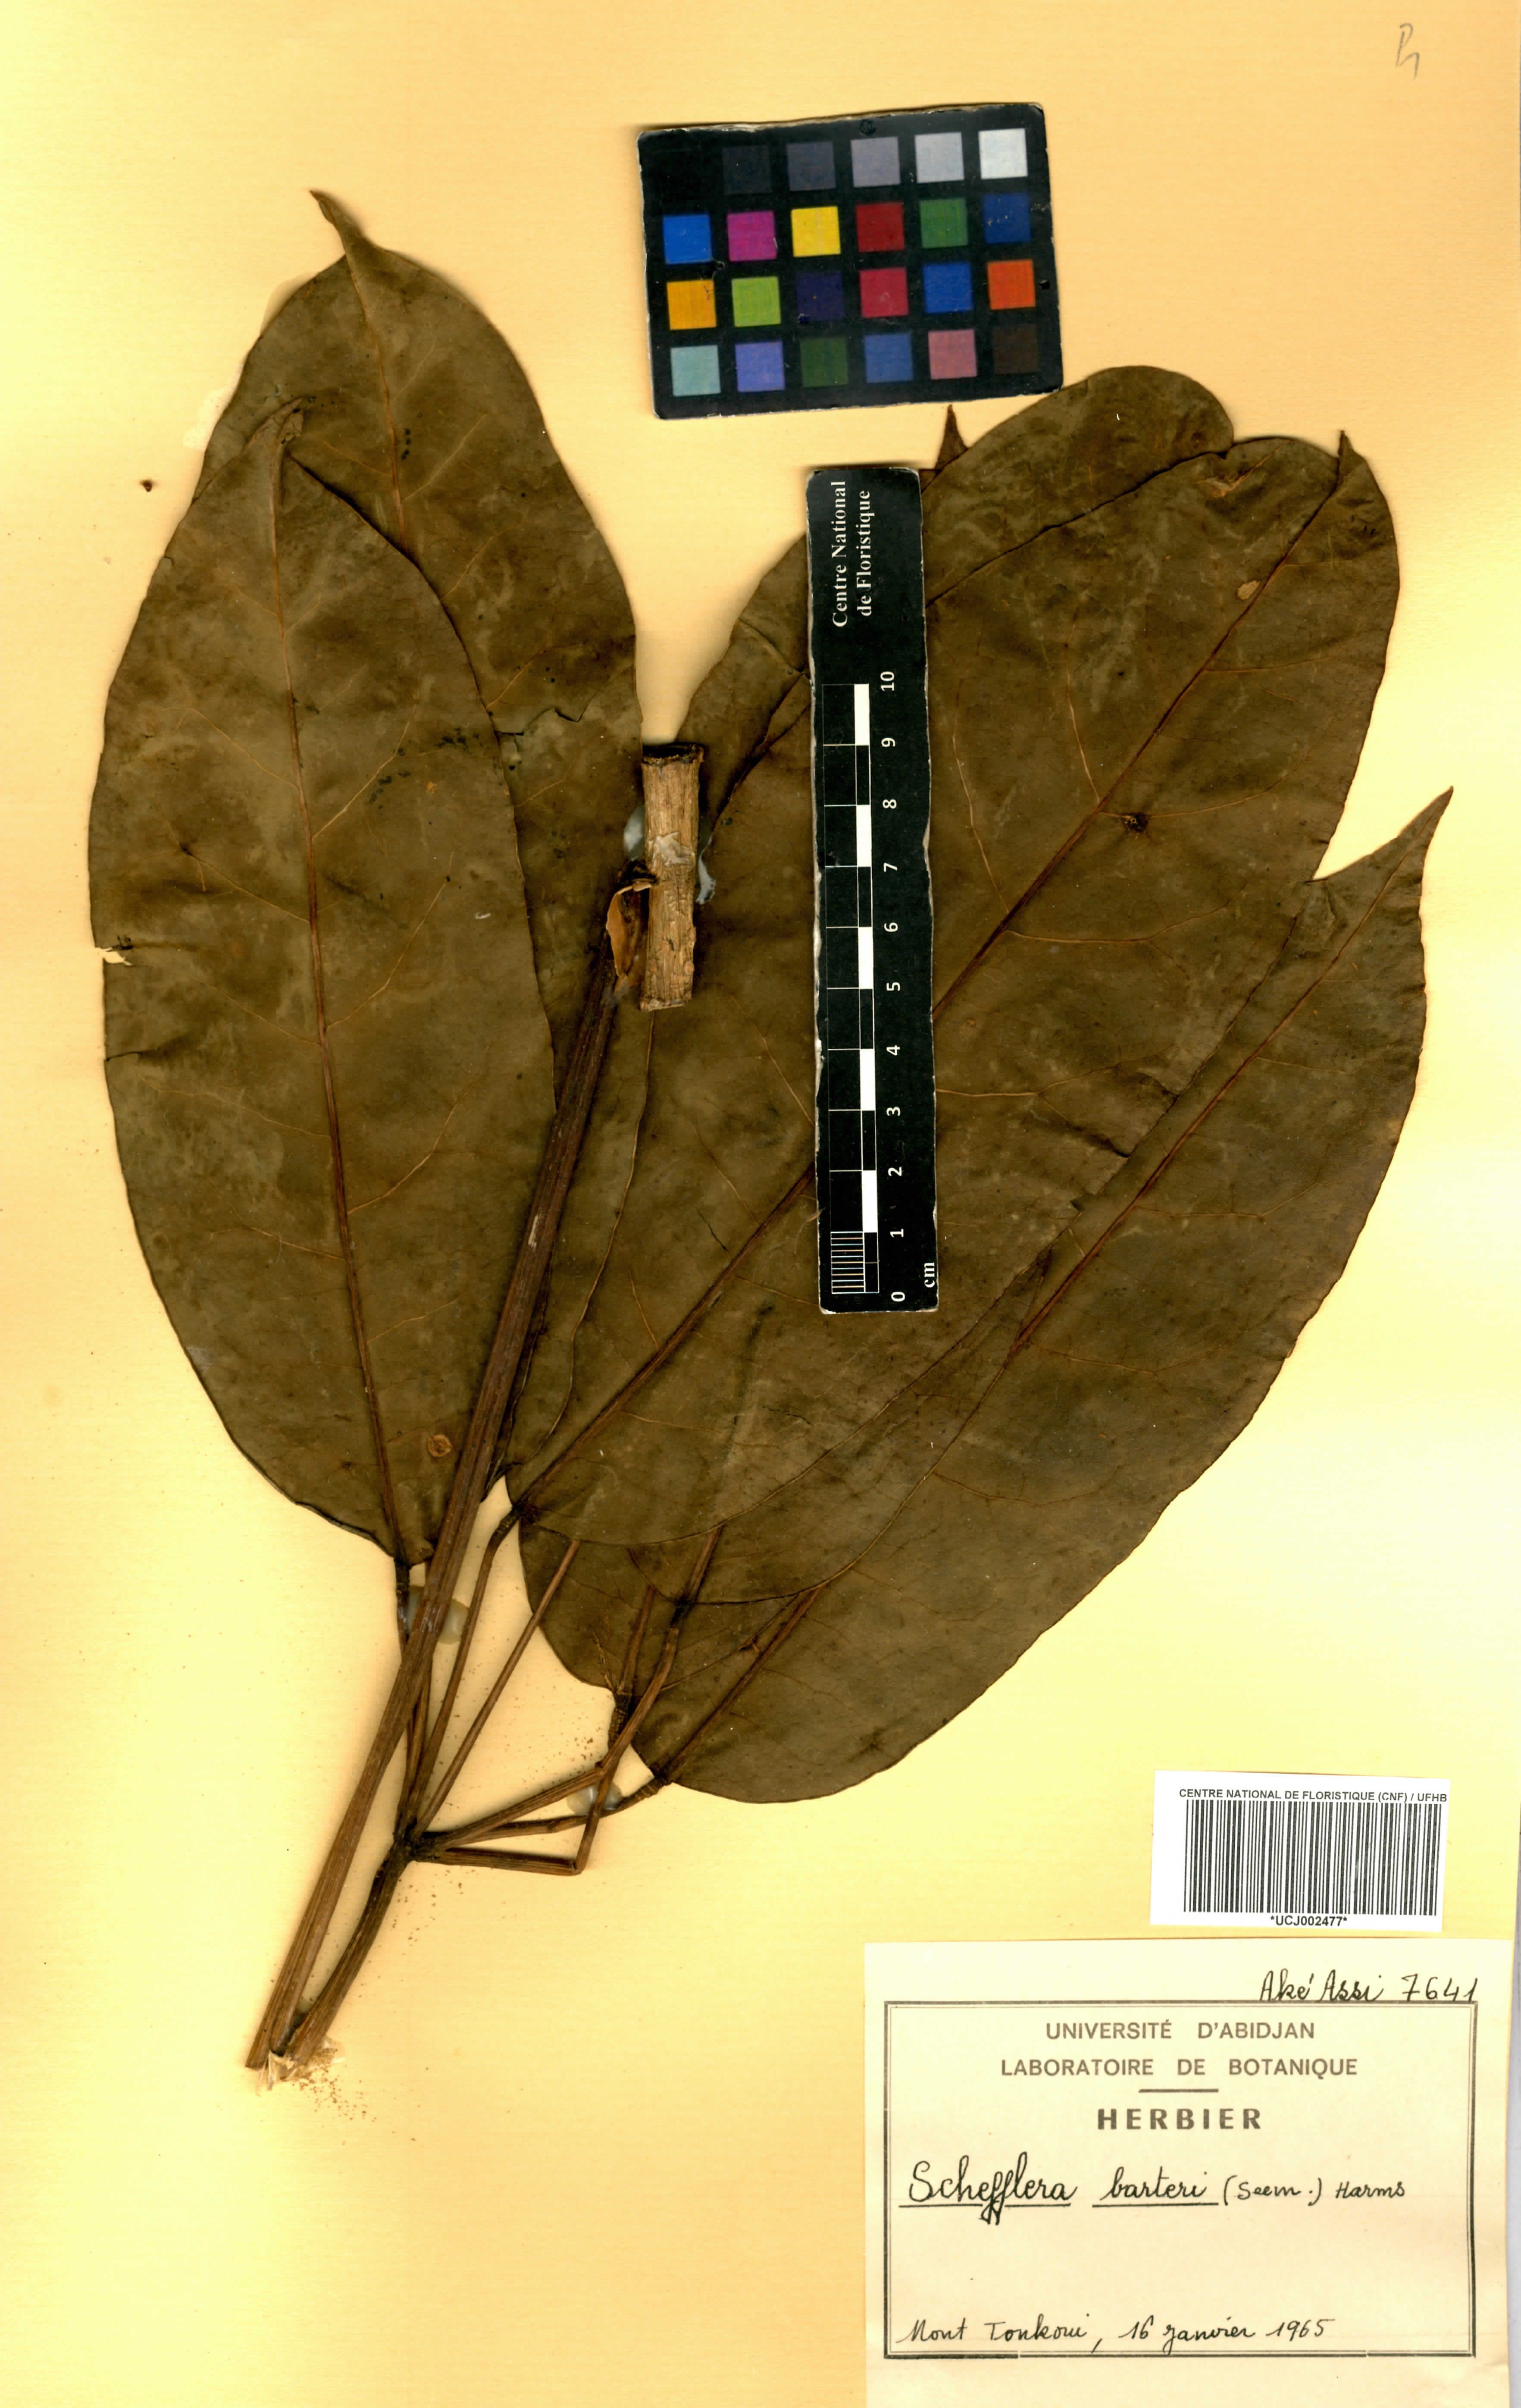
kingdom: Plantae
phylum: Tracheophyta
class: Magnoliopsida
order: Apiales
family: Araliaceae
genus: Astropanax
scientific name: Astropanax barteri
